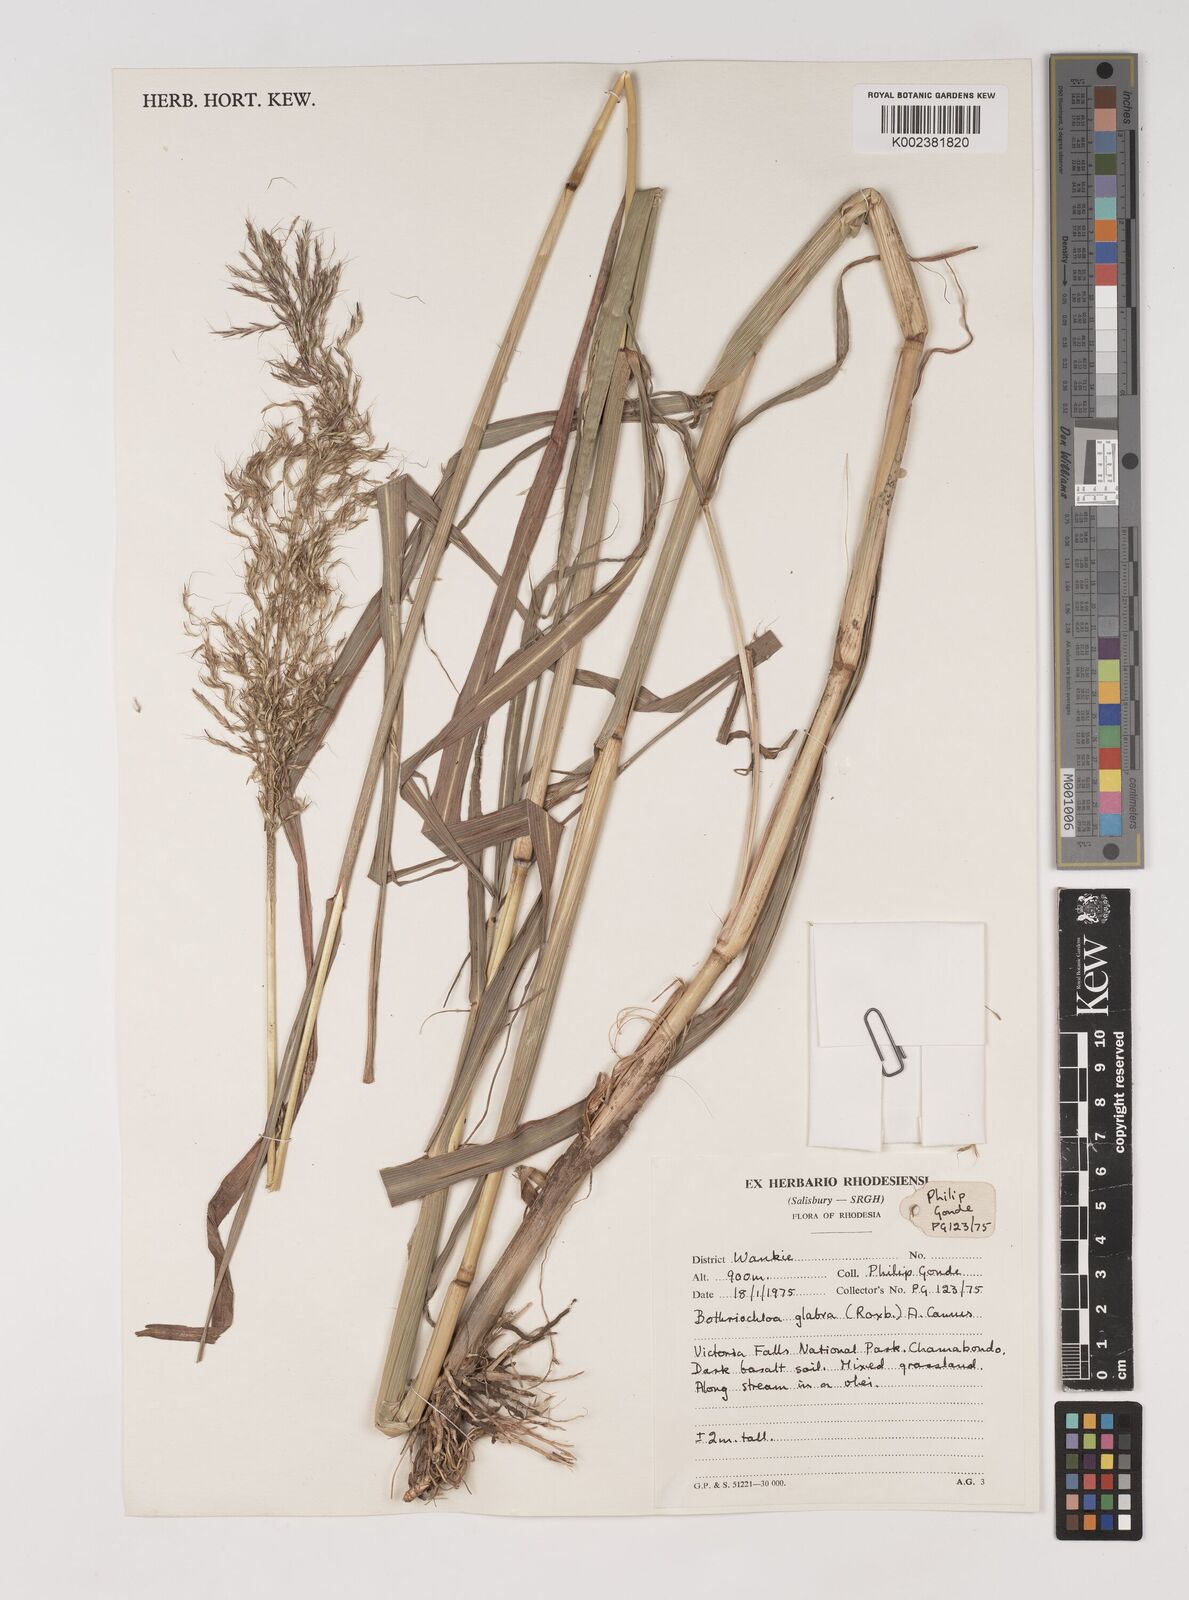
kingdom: Plantae
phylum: Tracheophyta
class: Liliopsida
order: Poales
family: Poaceae
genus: Bothriochloa
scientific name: Bothriochloa bladhii
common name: Caucasian bluestem
